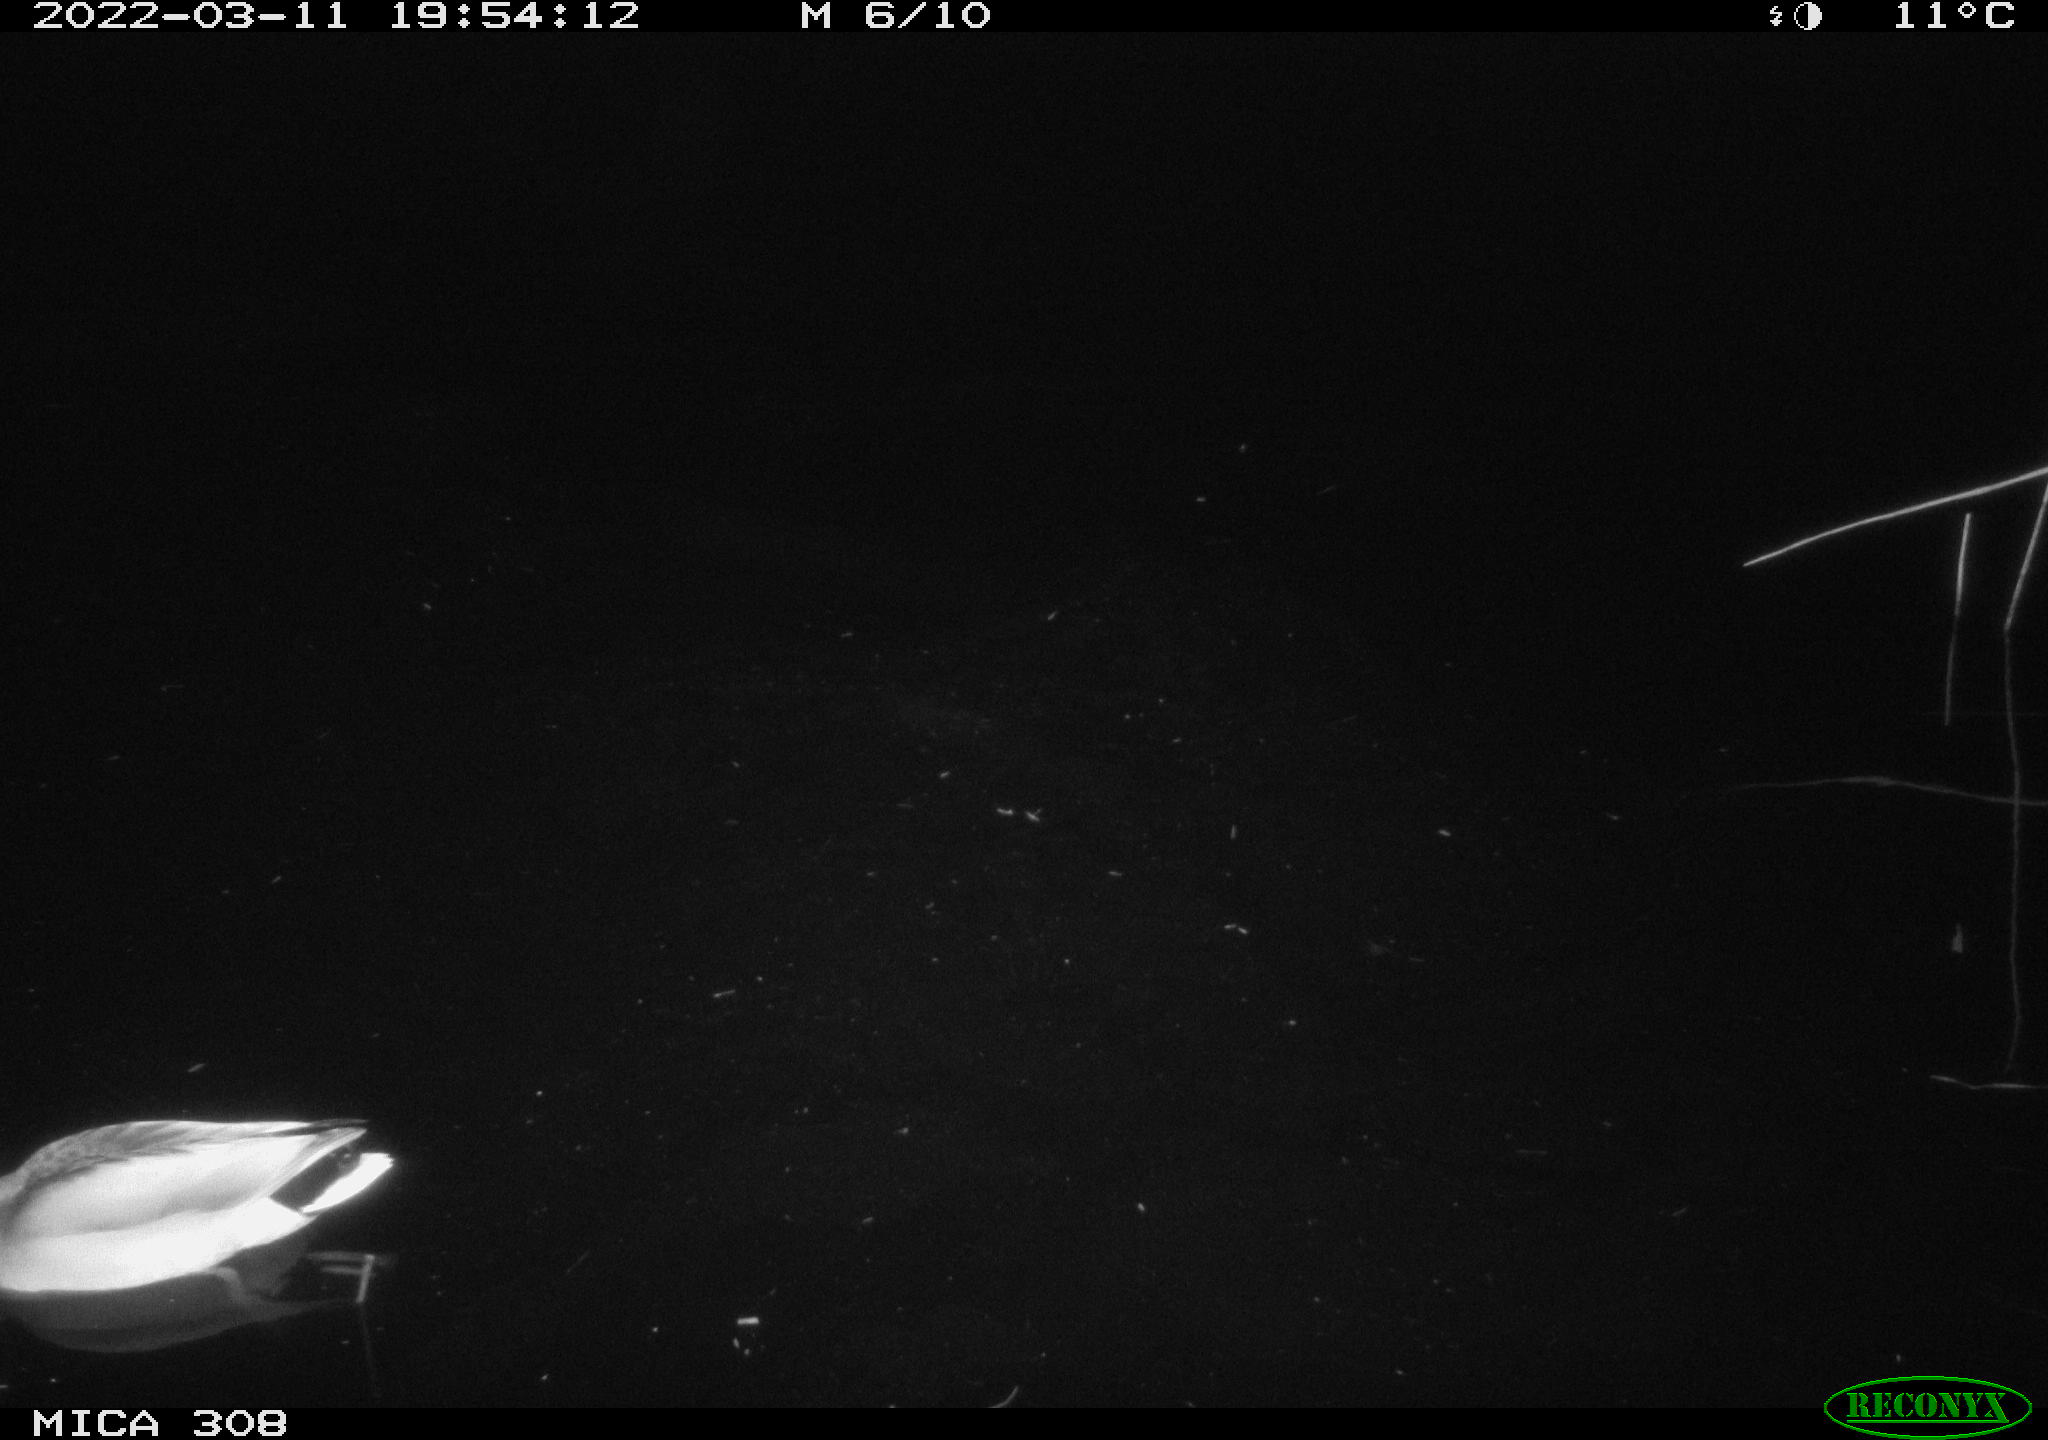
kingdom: Animalia
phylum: Chordata
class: Aves
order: Anseriformes
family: Anatidae
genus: Anas
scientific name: Anas platyrhynchos
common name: Mallard
